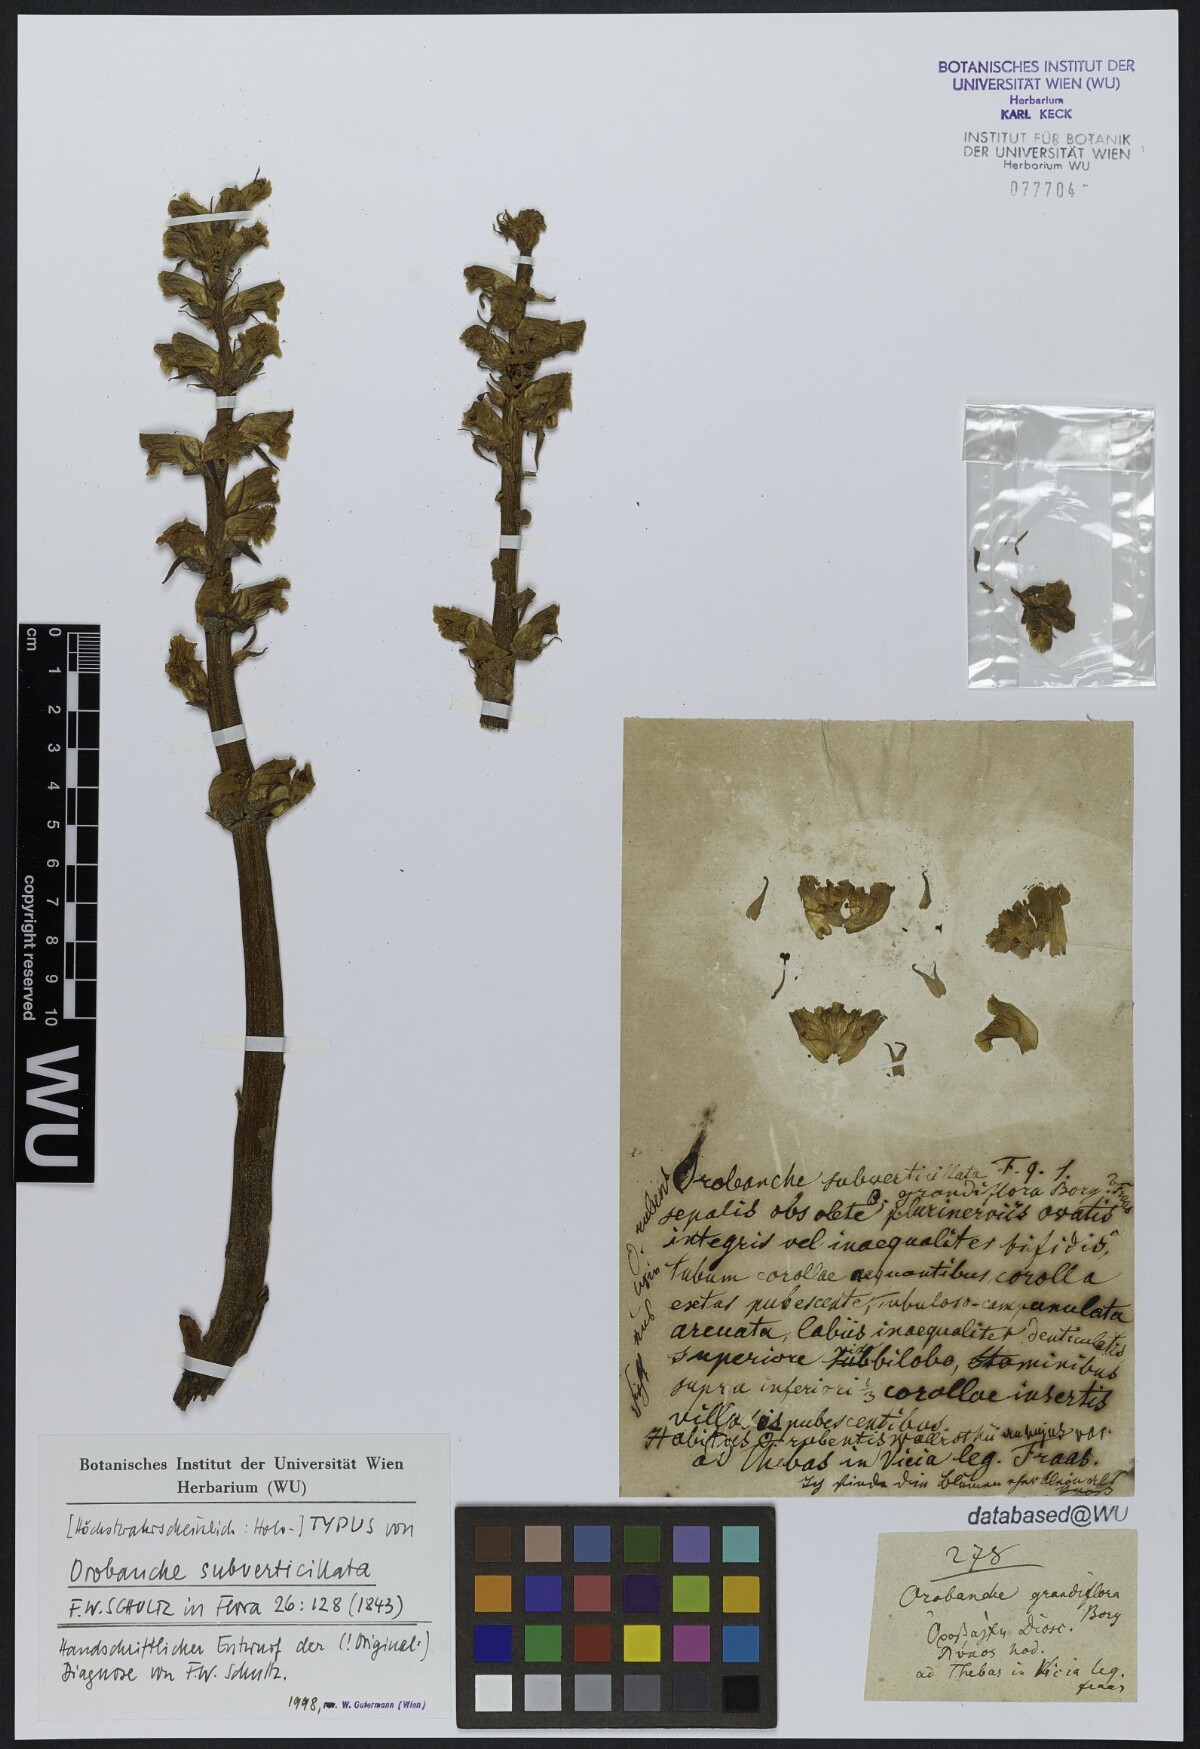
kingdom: Plantae
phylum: Tracheophyta
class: Magnoliopsida
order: Lamiales
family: Orobanchaceae
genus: Orobanche
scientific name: Orobanche subverticillata
